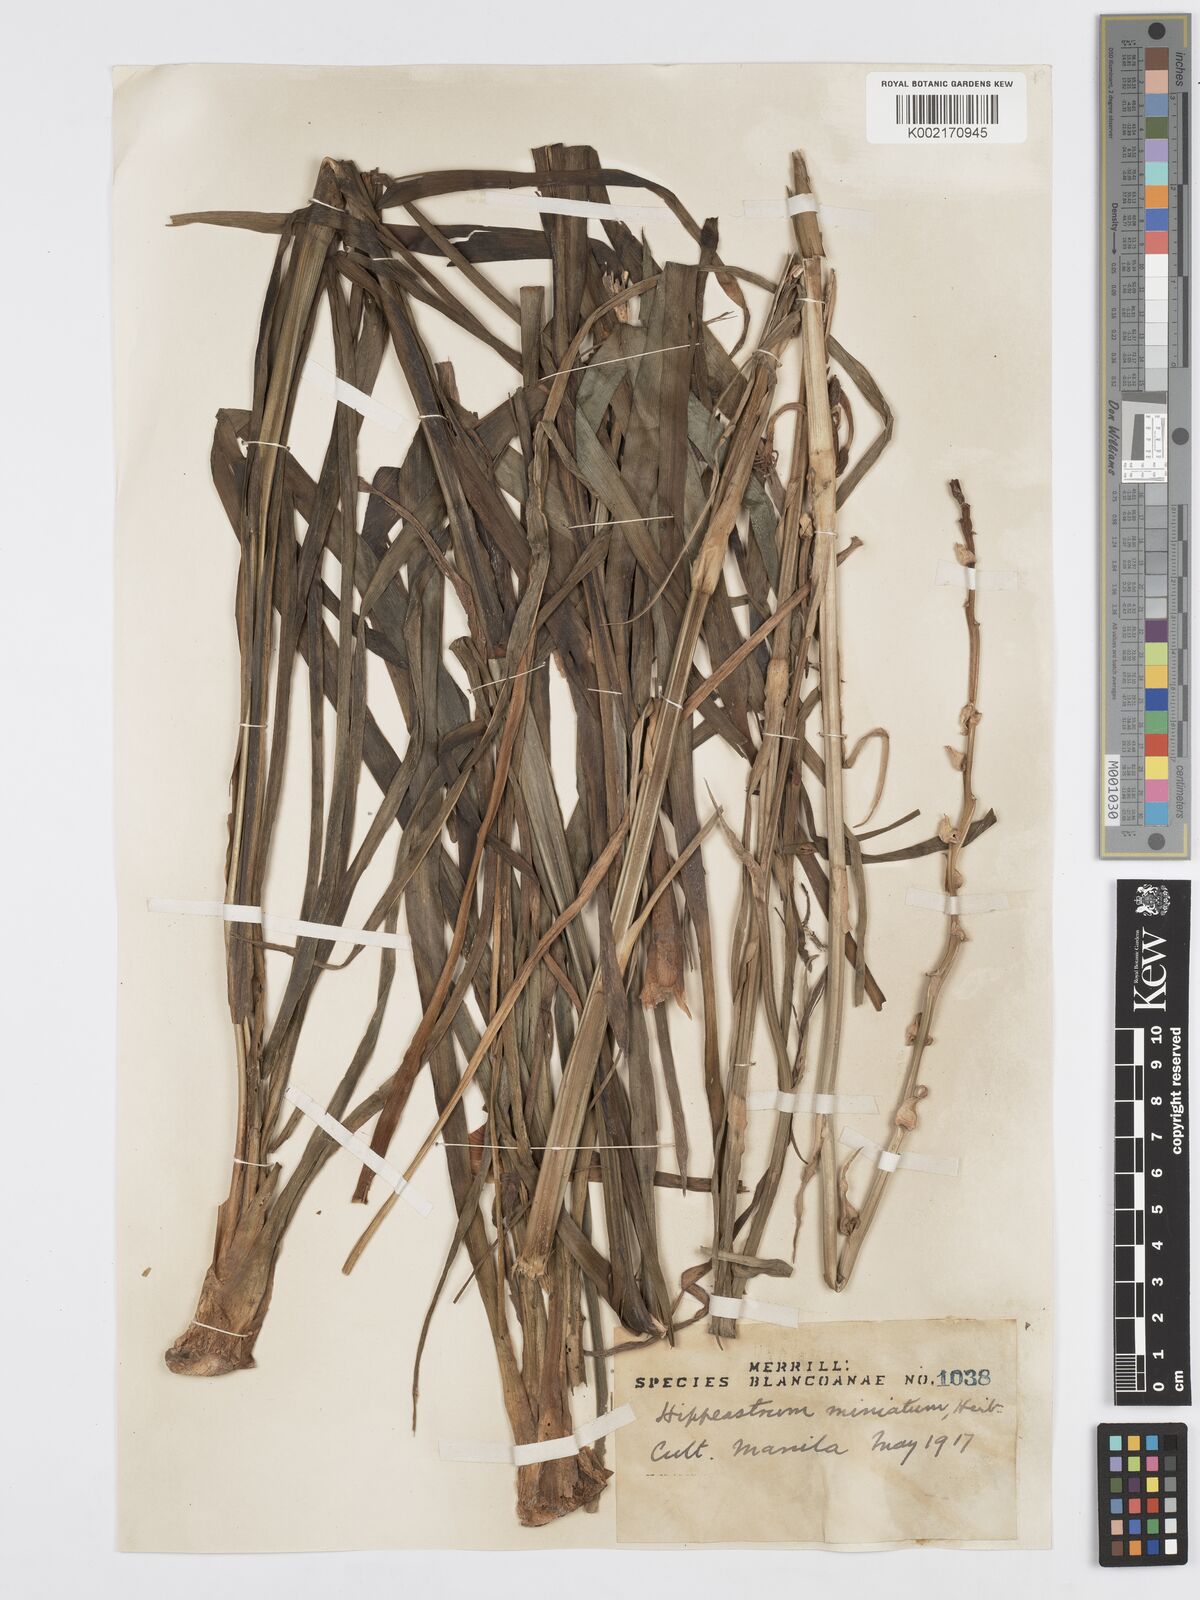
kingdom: Plantae
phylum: Tracheophyta
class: Liliopsida
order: Asparagales
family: Asparagaceae
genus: Agave
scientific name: Agave amica
